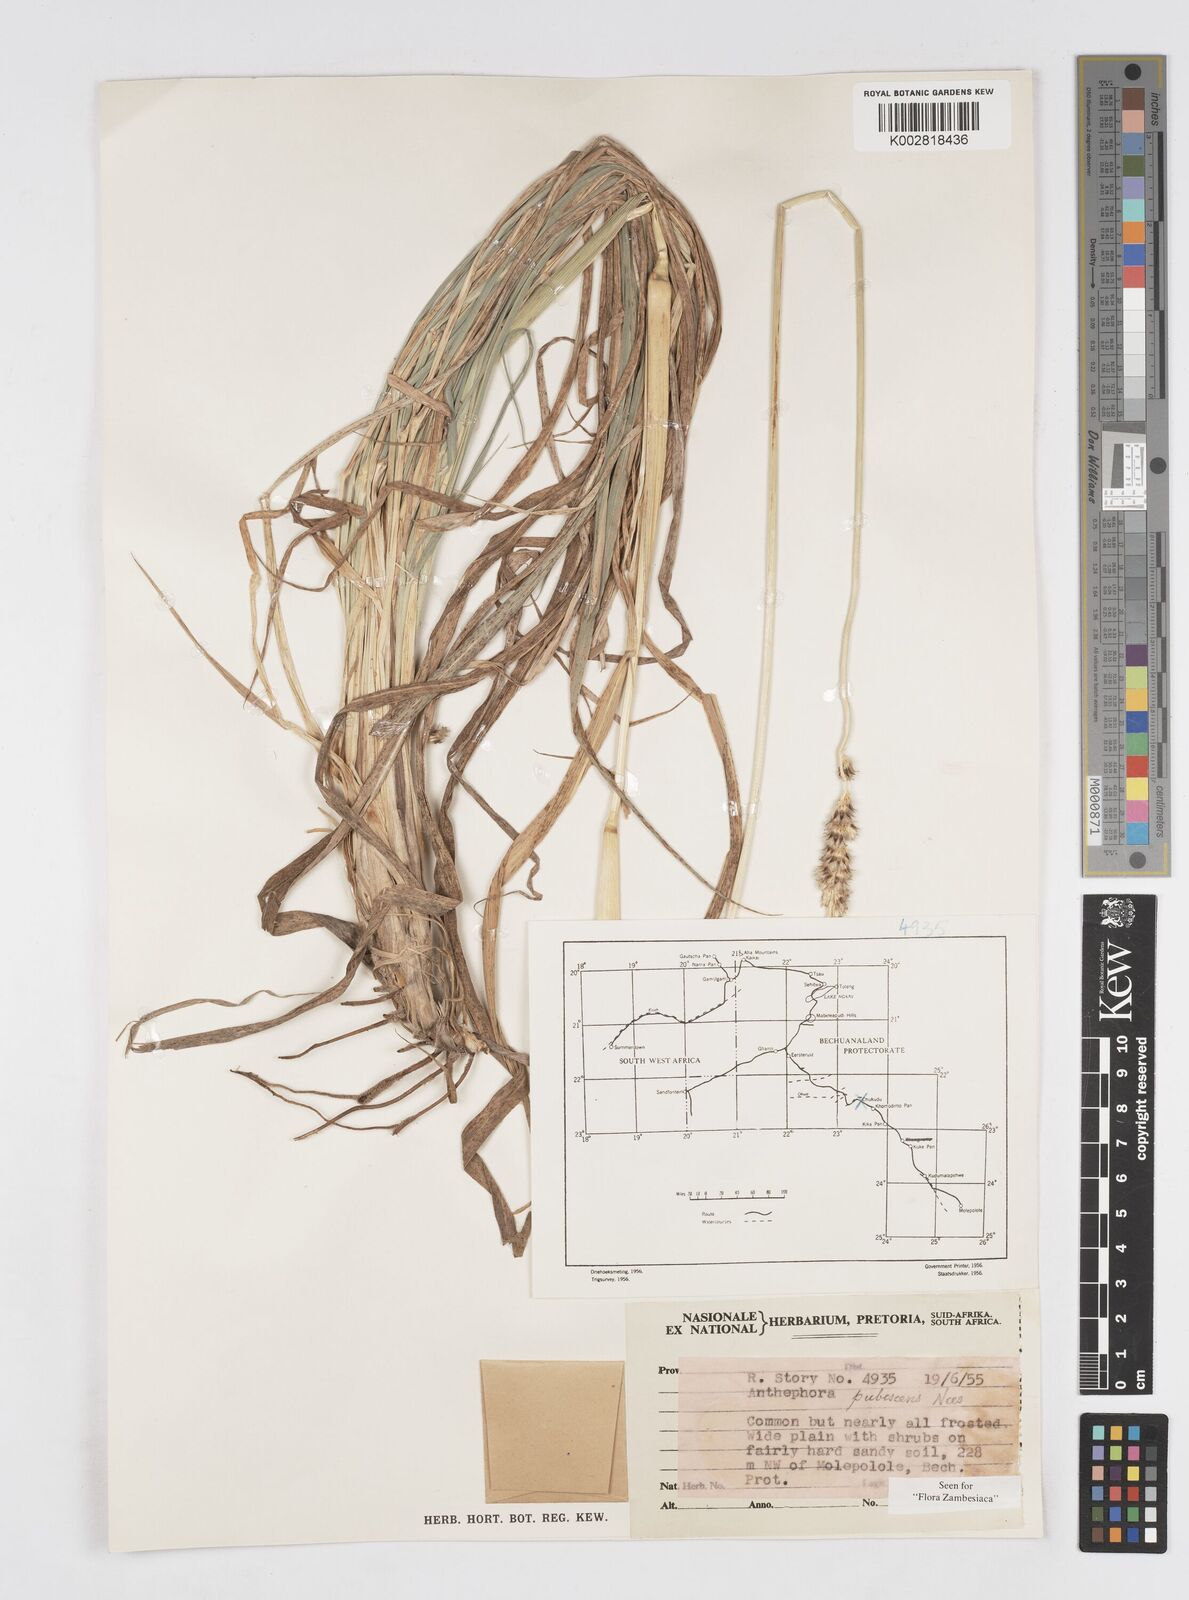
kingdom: Plantae
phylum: Tracheophyta
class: Liliopsida
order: Poales
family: Poaceae
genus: Anthephora
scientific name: Anthephora pubescens
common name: Wool grass
